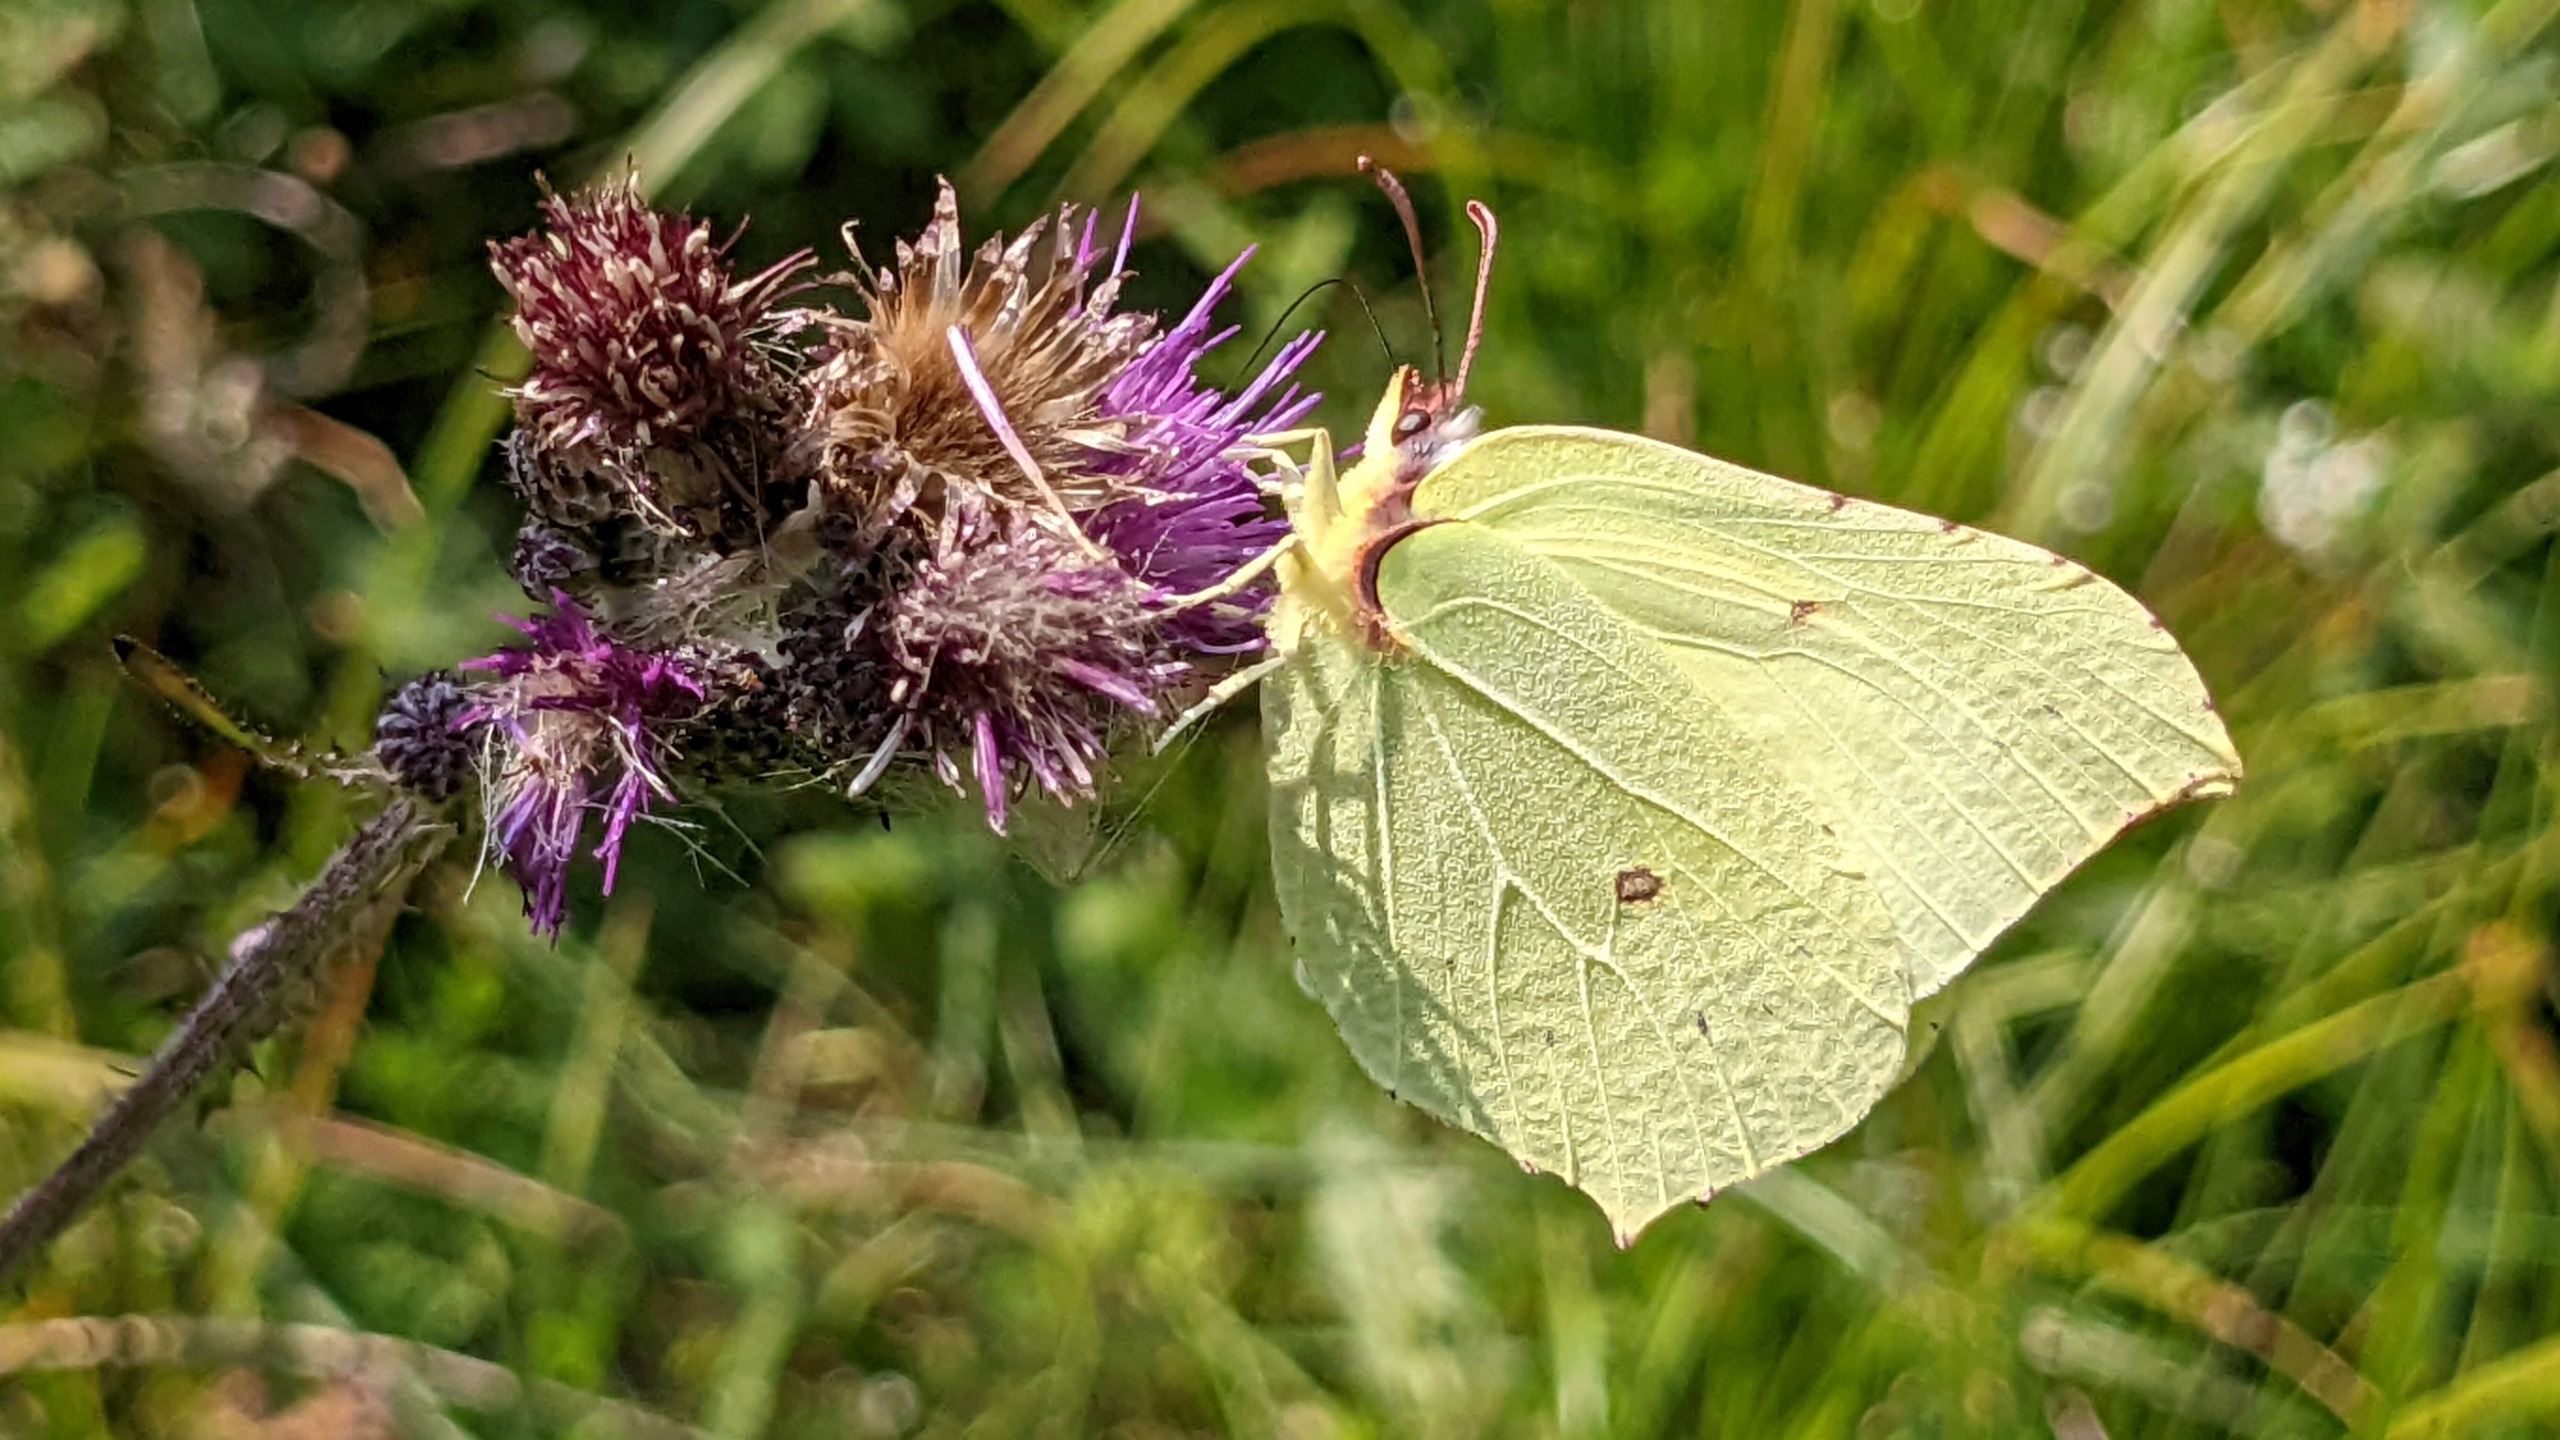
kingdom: Animalia
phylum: Arthropoda
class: Insecta
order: Lepidoptera
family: Pieridae
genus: Gonepteryx
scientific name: Gonepteryx rhamni
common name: Citronsommerfugl
